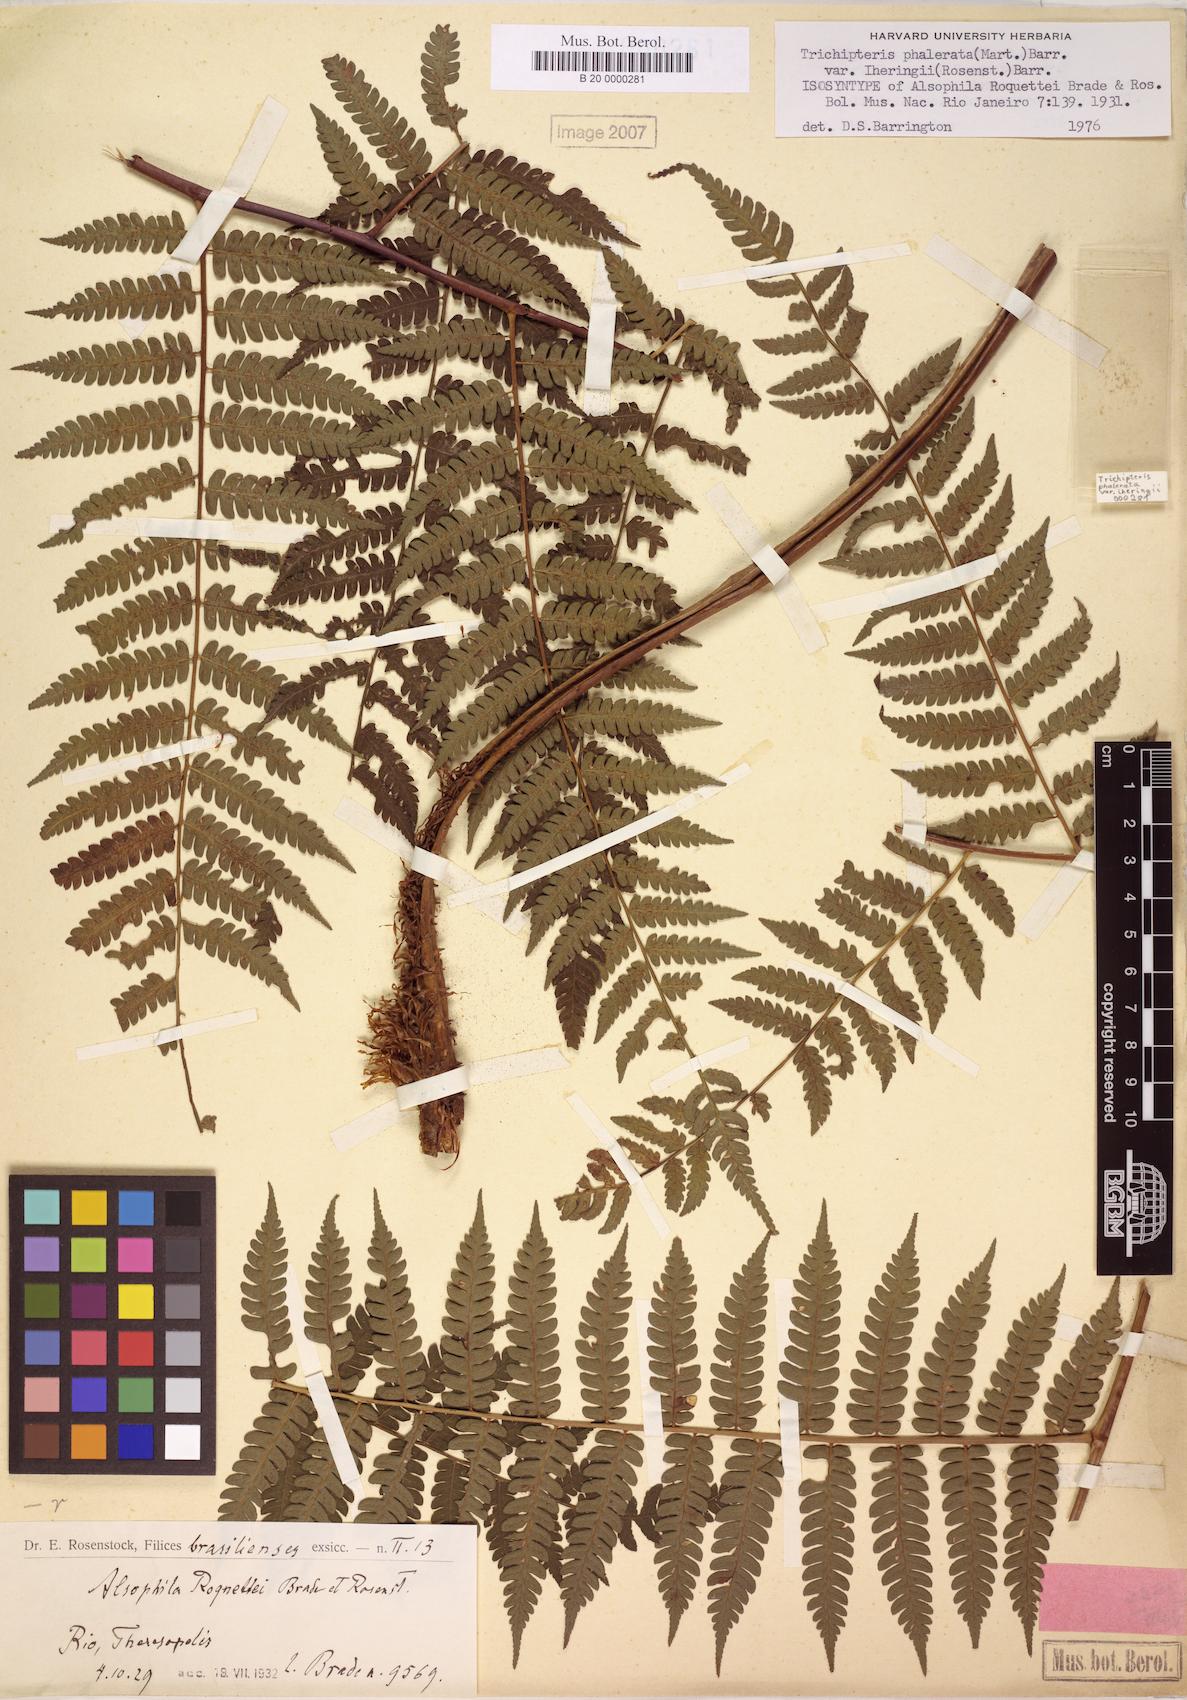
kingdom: Plantae
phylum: Tracheophyta
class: Polypodiopsida
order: Cyatheales
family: Cyatheaceae
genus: Cyathea
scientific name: Cyathea iheringii
